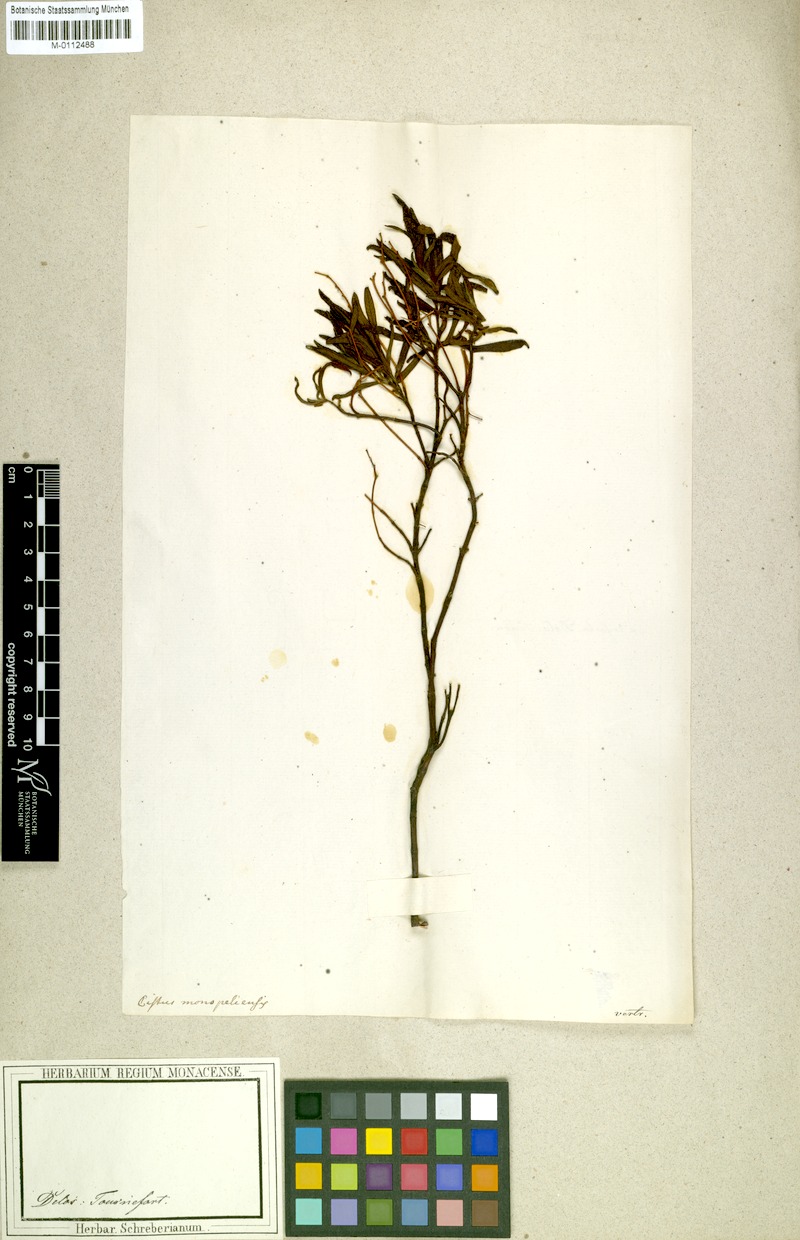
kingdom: Plantae
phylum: Tracheophyta
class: Magnoliopsida
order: Malvales
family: Cistaceae
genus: Cistus
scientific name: Cistus monspeliensis
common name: Montpelier cistus
